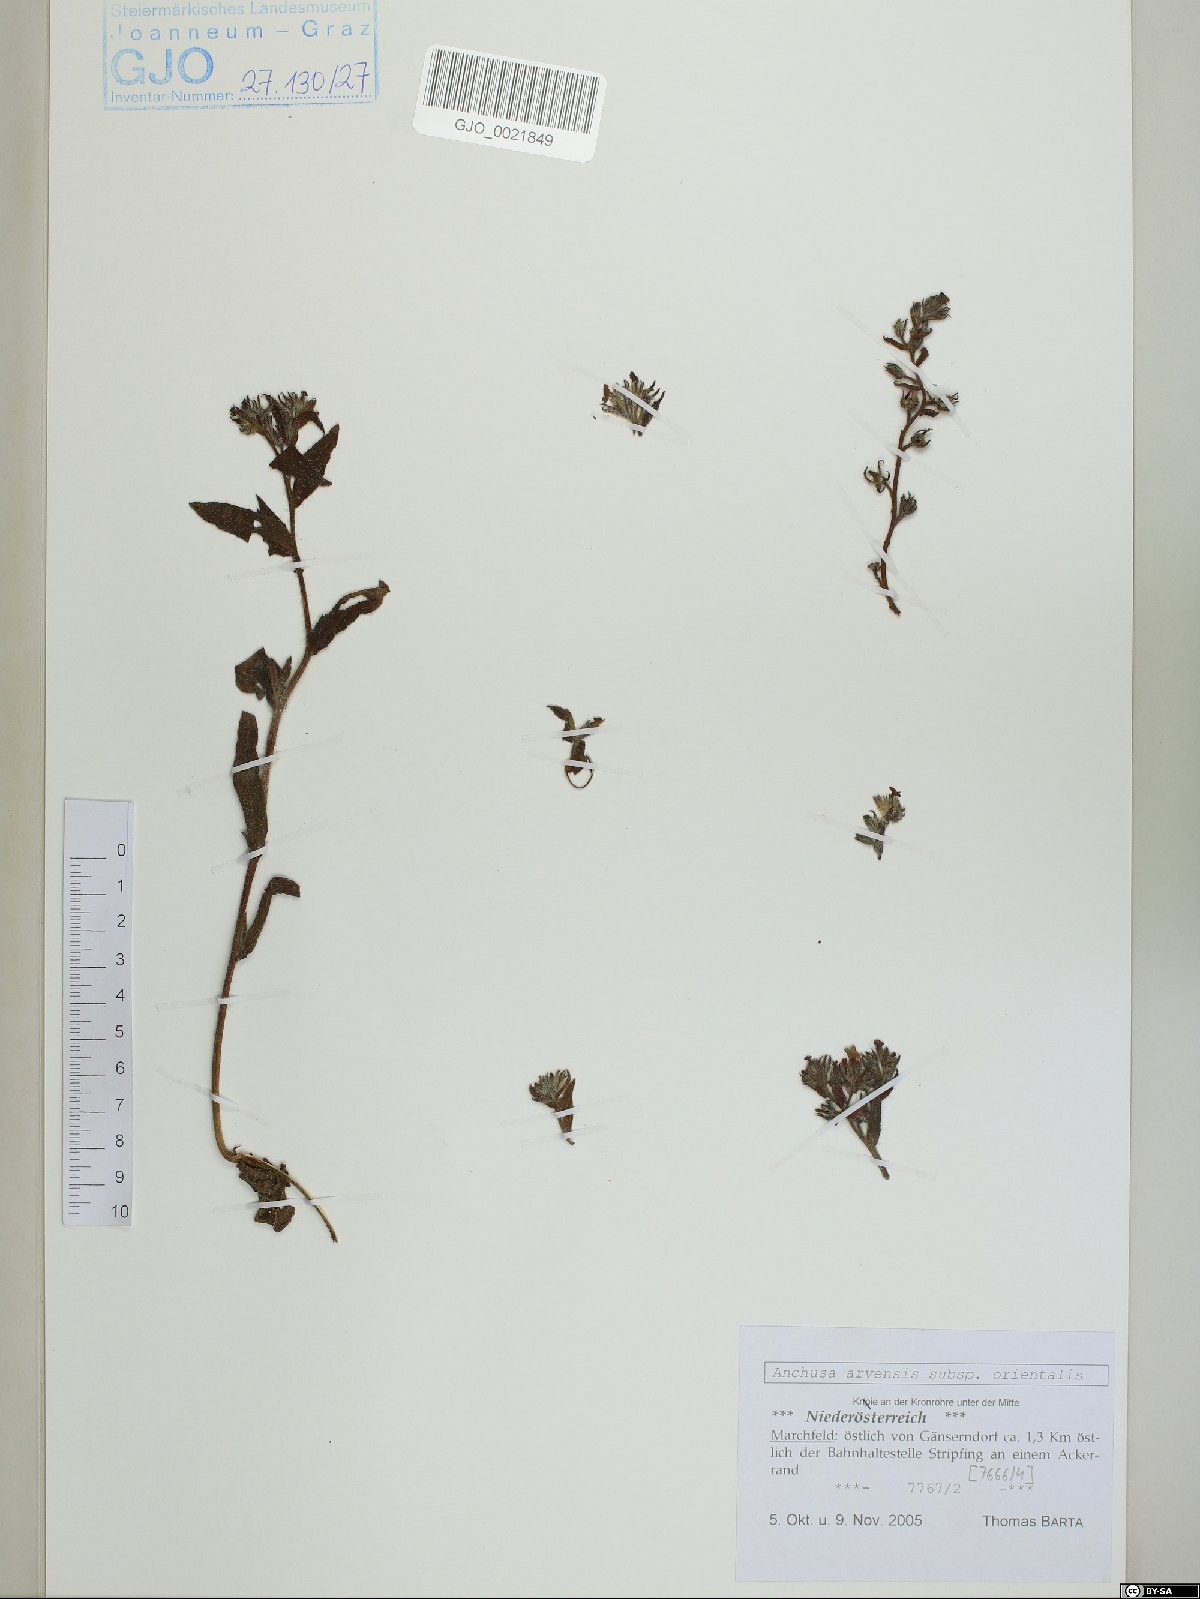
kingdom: Plantae
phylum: Tracheophyta
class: Magnoliopsida
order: Boraginales
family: Boraginaceae
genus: Lycopsis
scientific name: Lycopsis arvensis
